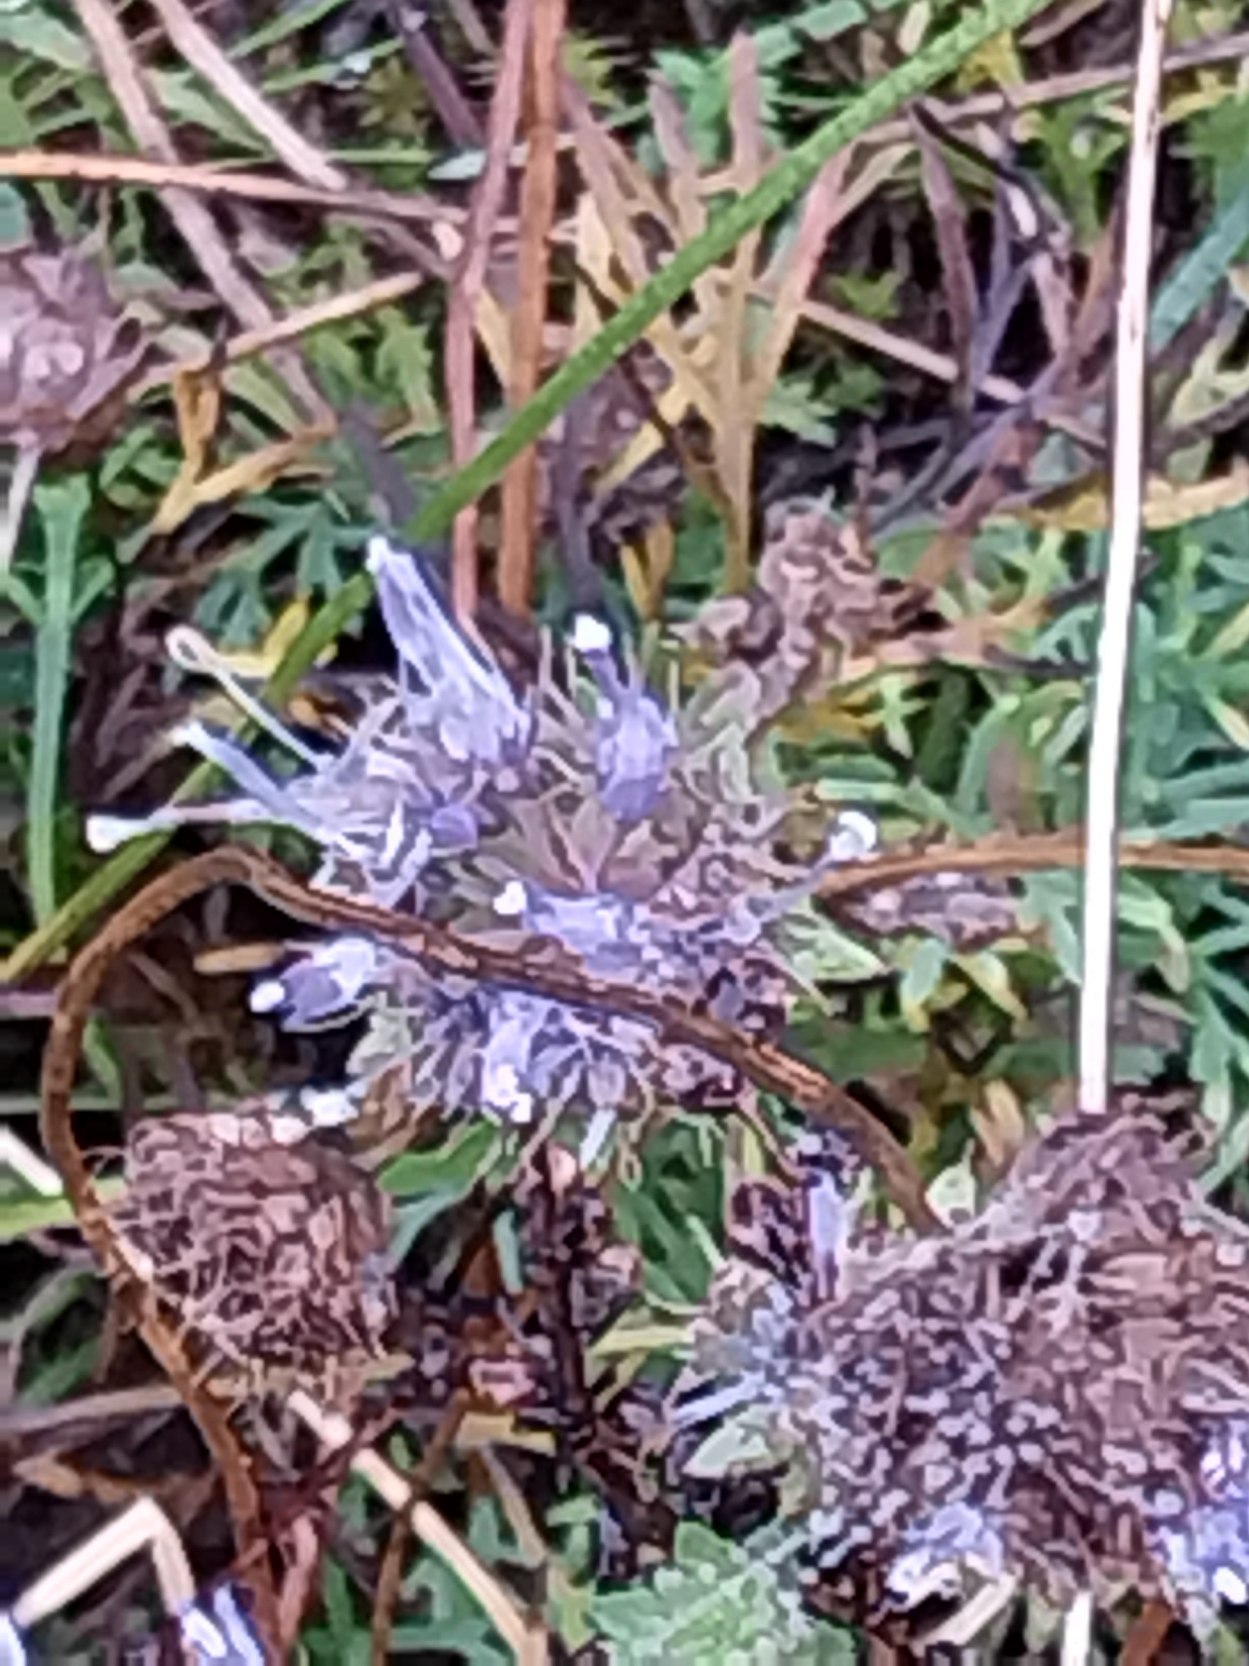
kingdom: Plantae
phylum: Tracheophyta
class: Magnoliopsida
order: Asterales
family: Campanulaceae
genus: Jasione
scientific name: Jasione montana
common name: Blåmunke
